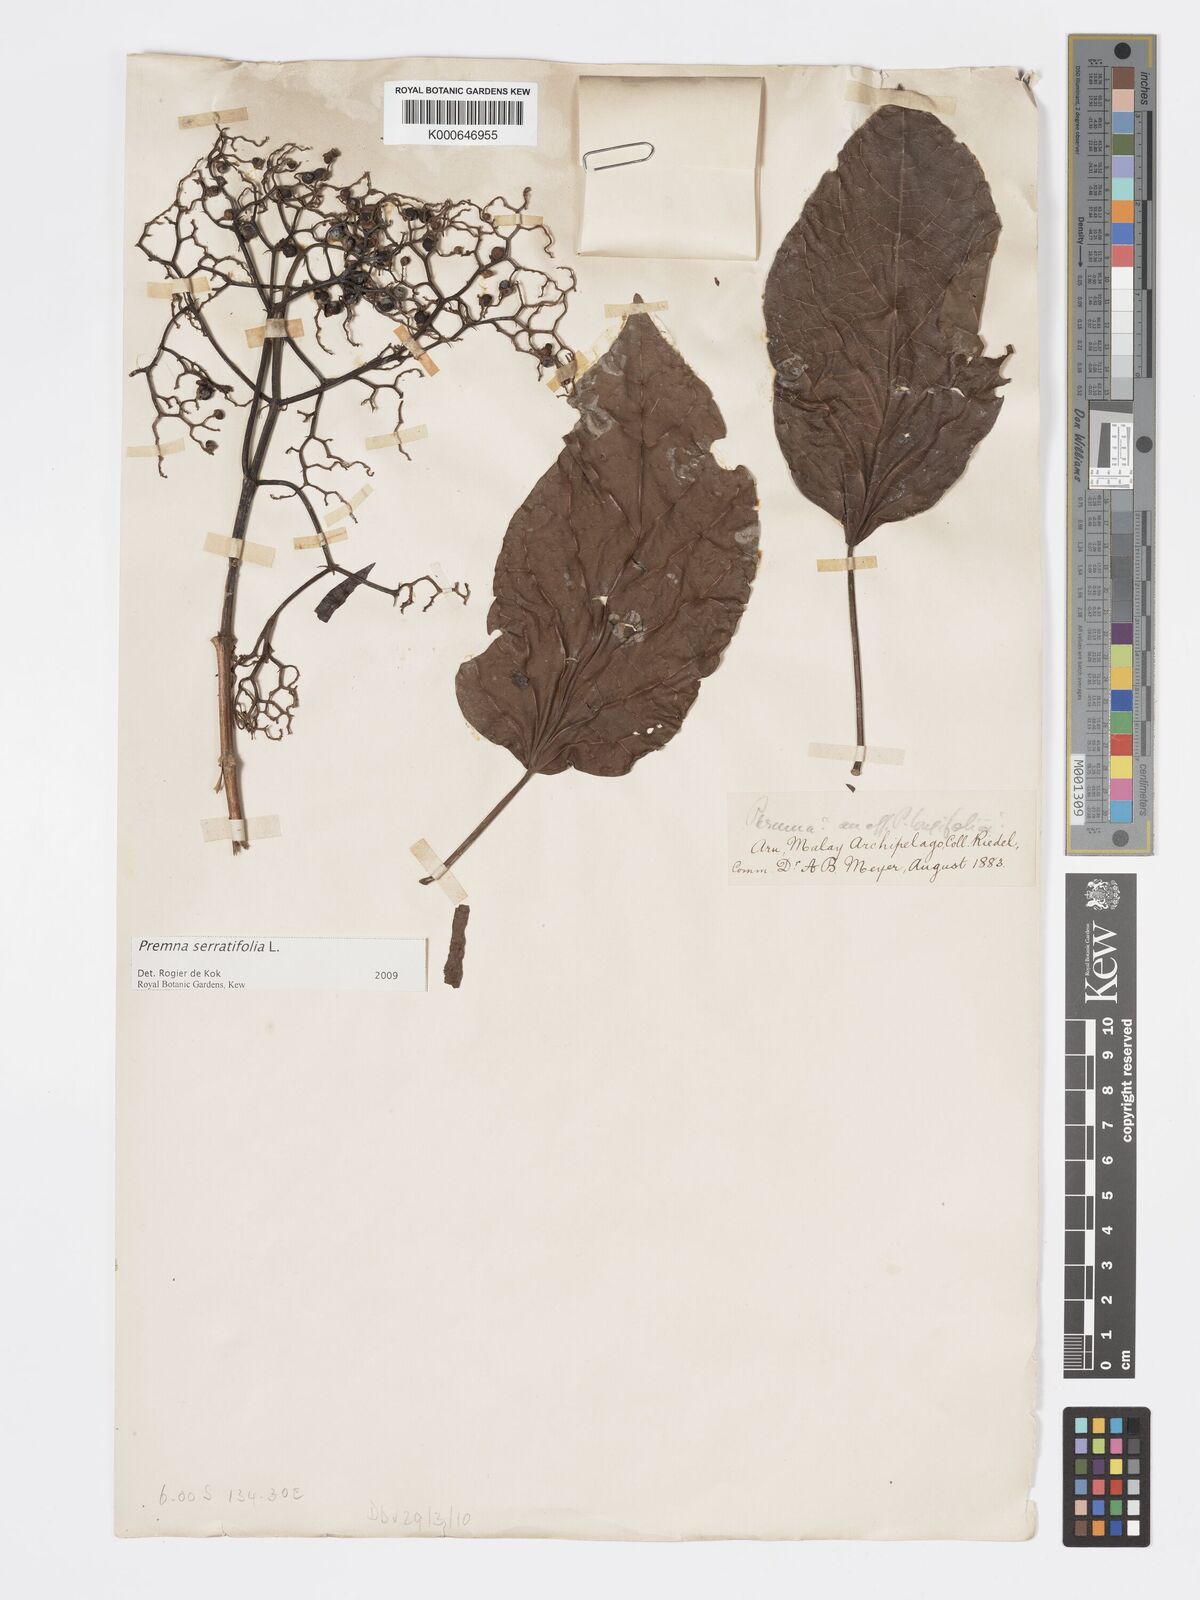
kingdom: Plantae
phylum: Tracheophyta
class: Magnoliopsida
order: Lamiales
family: Lamiaceae
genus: Premna
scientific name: Premna serratifolia
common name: Bastard guelder
